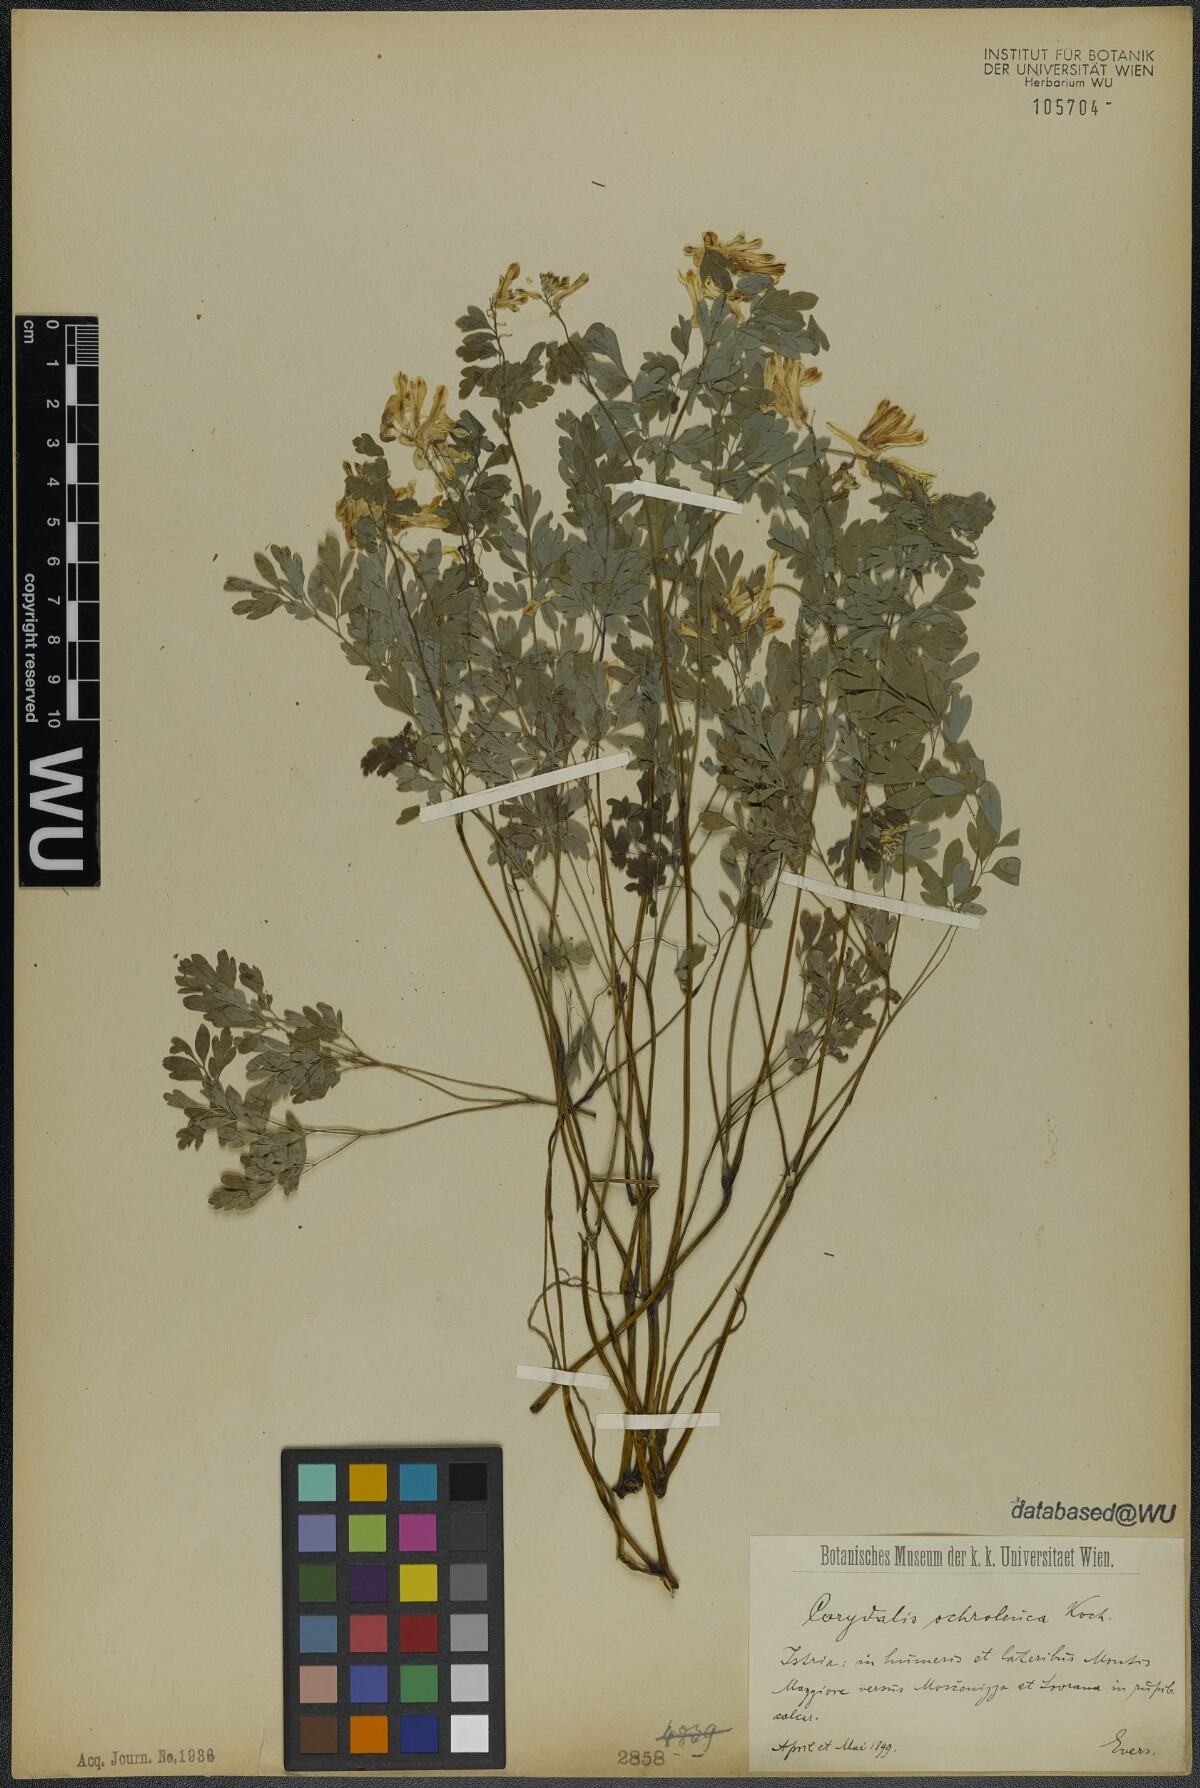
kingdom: Plantae
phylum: Tracheophyta
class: Magnoliopsida
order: Ranunculales
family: Papaveraceae
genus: Pseudofumaria
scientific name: Pseudofumaria alba
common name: Pale corydalis
